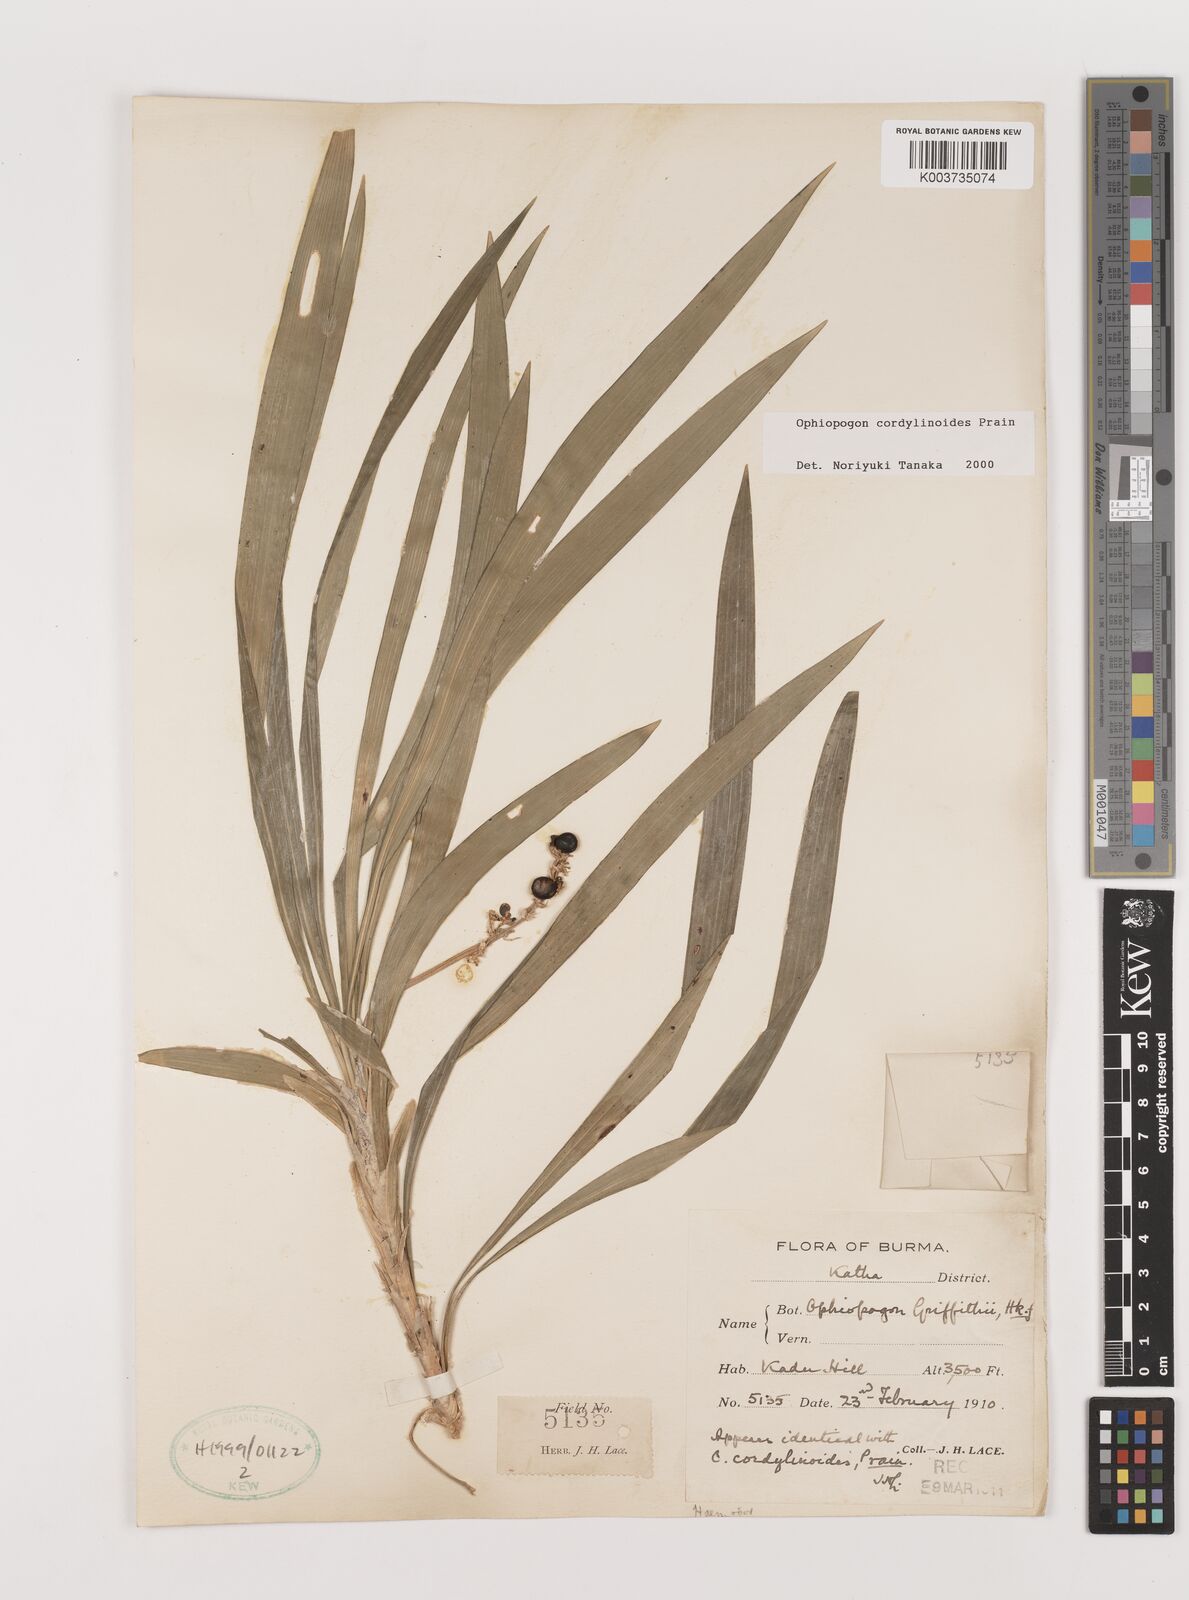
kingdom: Plantae
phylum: Tracheophyta
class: Liliopsida
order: Asparagales
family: Asparagaceae
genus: Ophiopogon
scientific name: Ophiopogon cordylinoides
